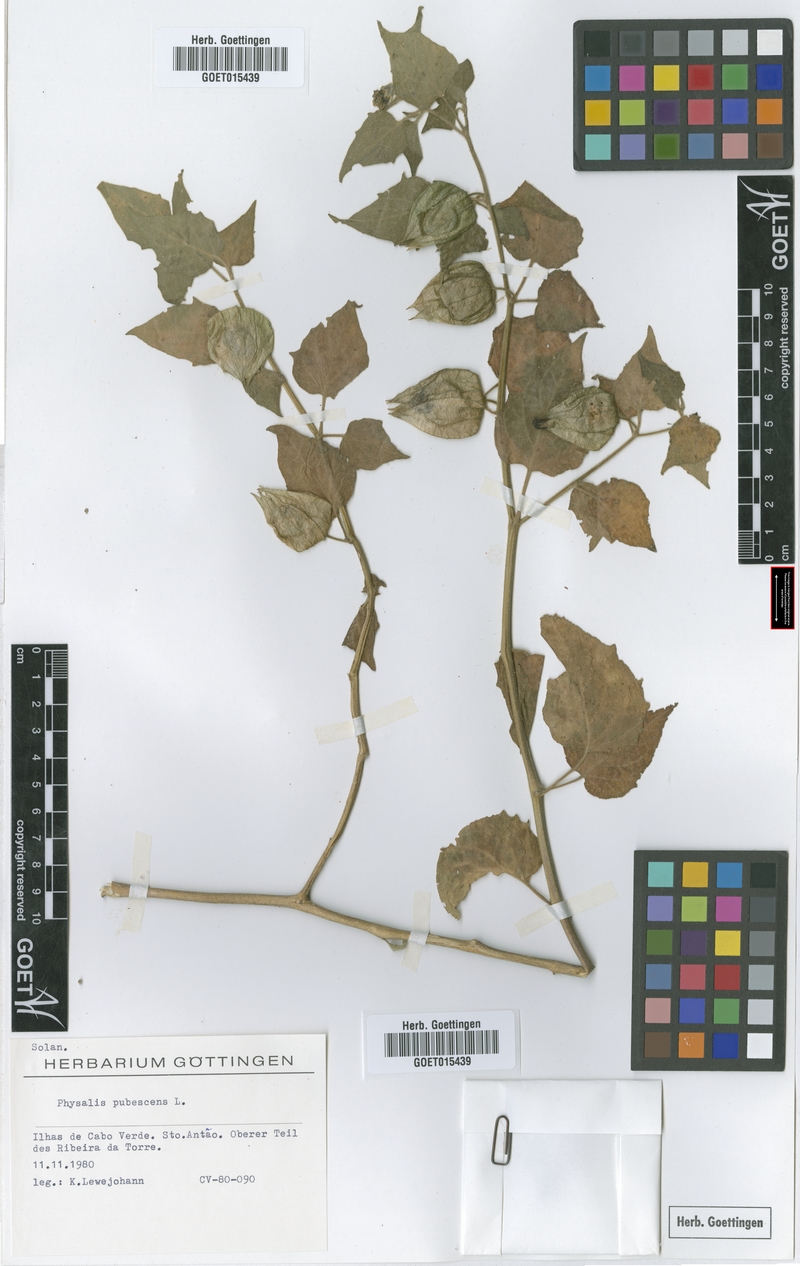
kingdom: Plantae
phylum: Tracheophyta
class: Magnoliopsida
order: Solanales
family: Solanaceae
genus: Physalis
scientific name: Physalis pubescens
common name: Downy ground-cherry
